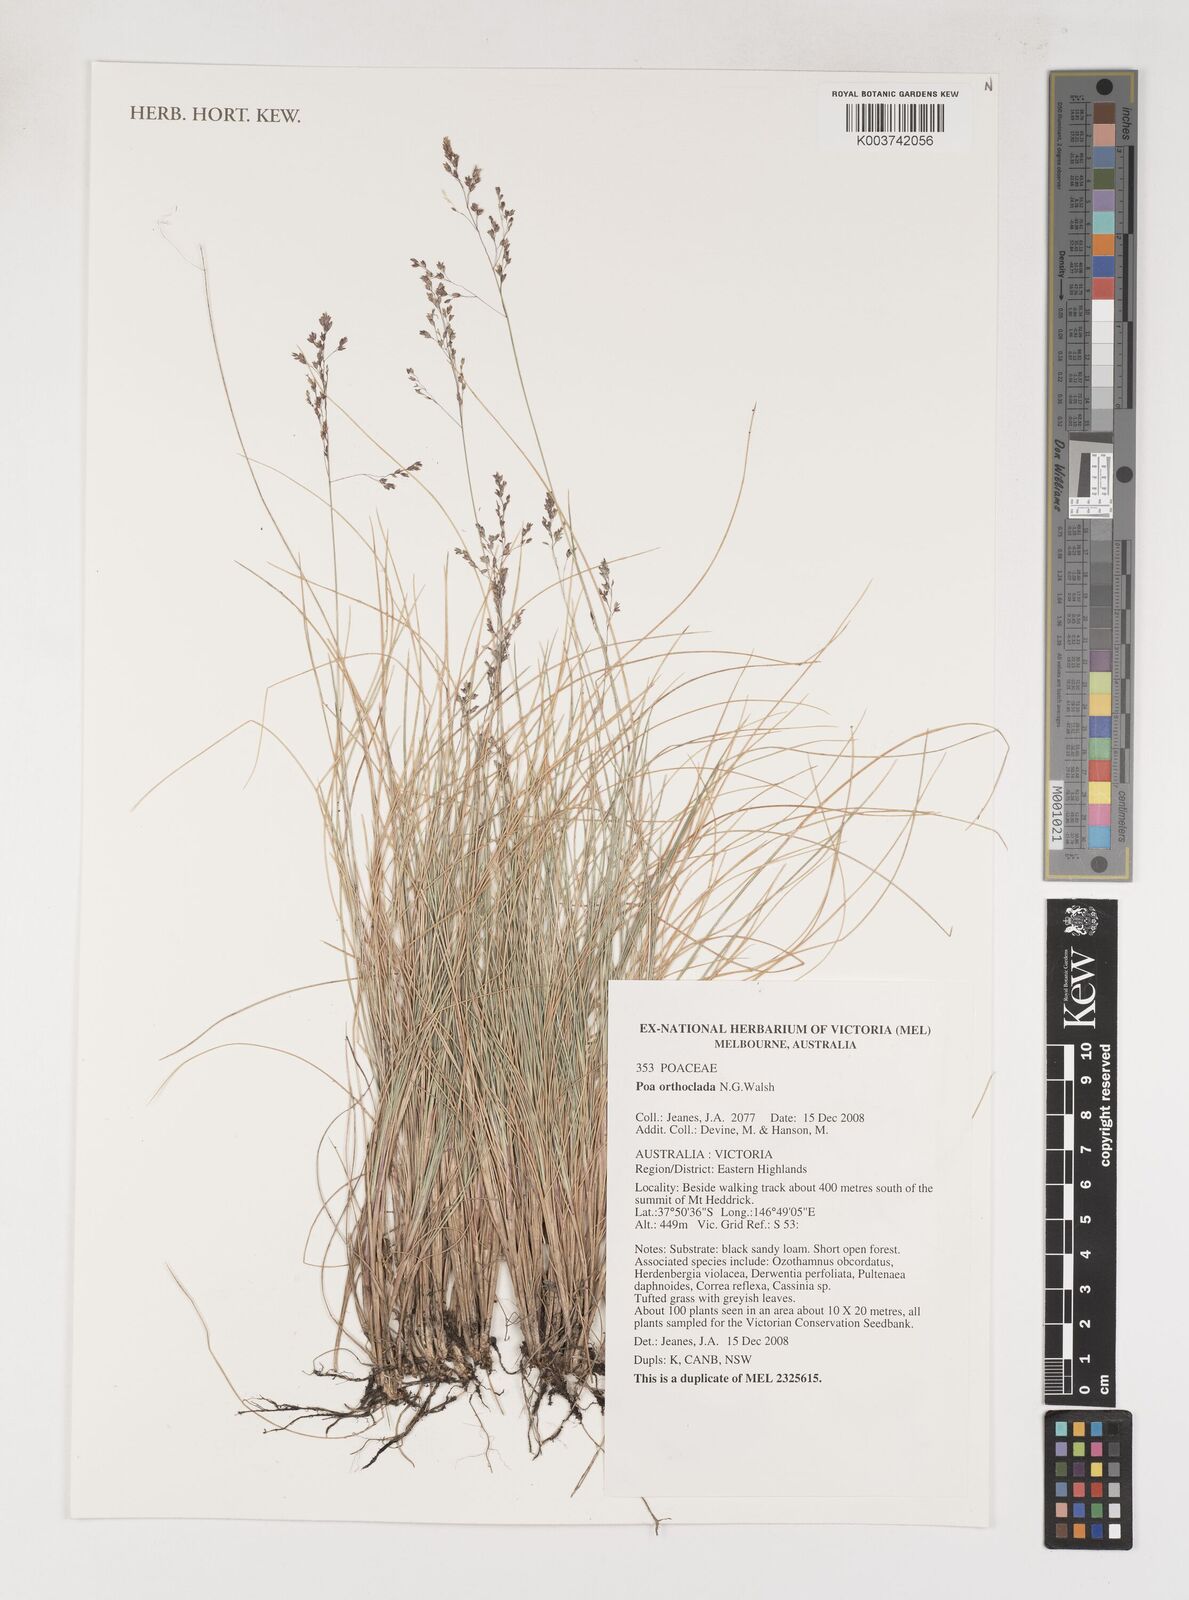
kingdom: Plantae
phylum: Tracheophyta
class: Liliopsida
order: Poales
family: Poaceae
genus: Poa
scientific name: Poa orthoclada
